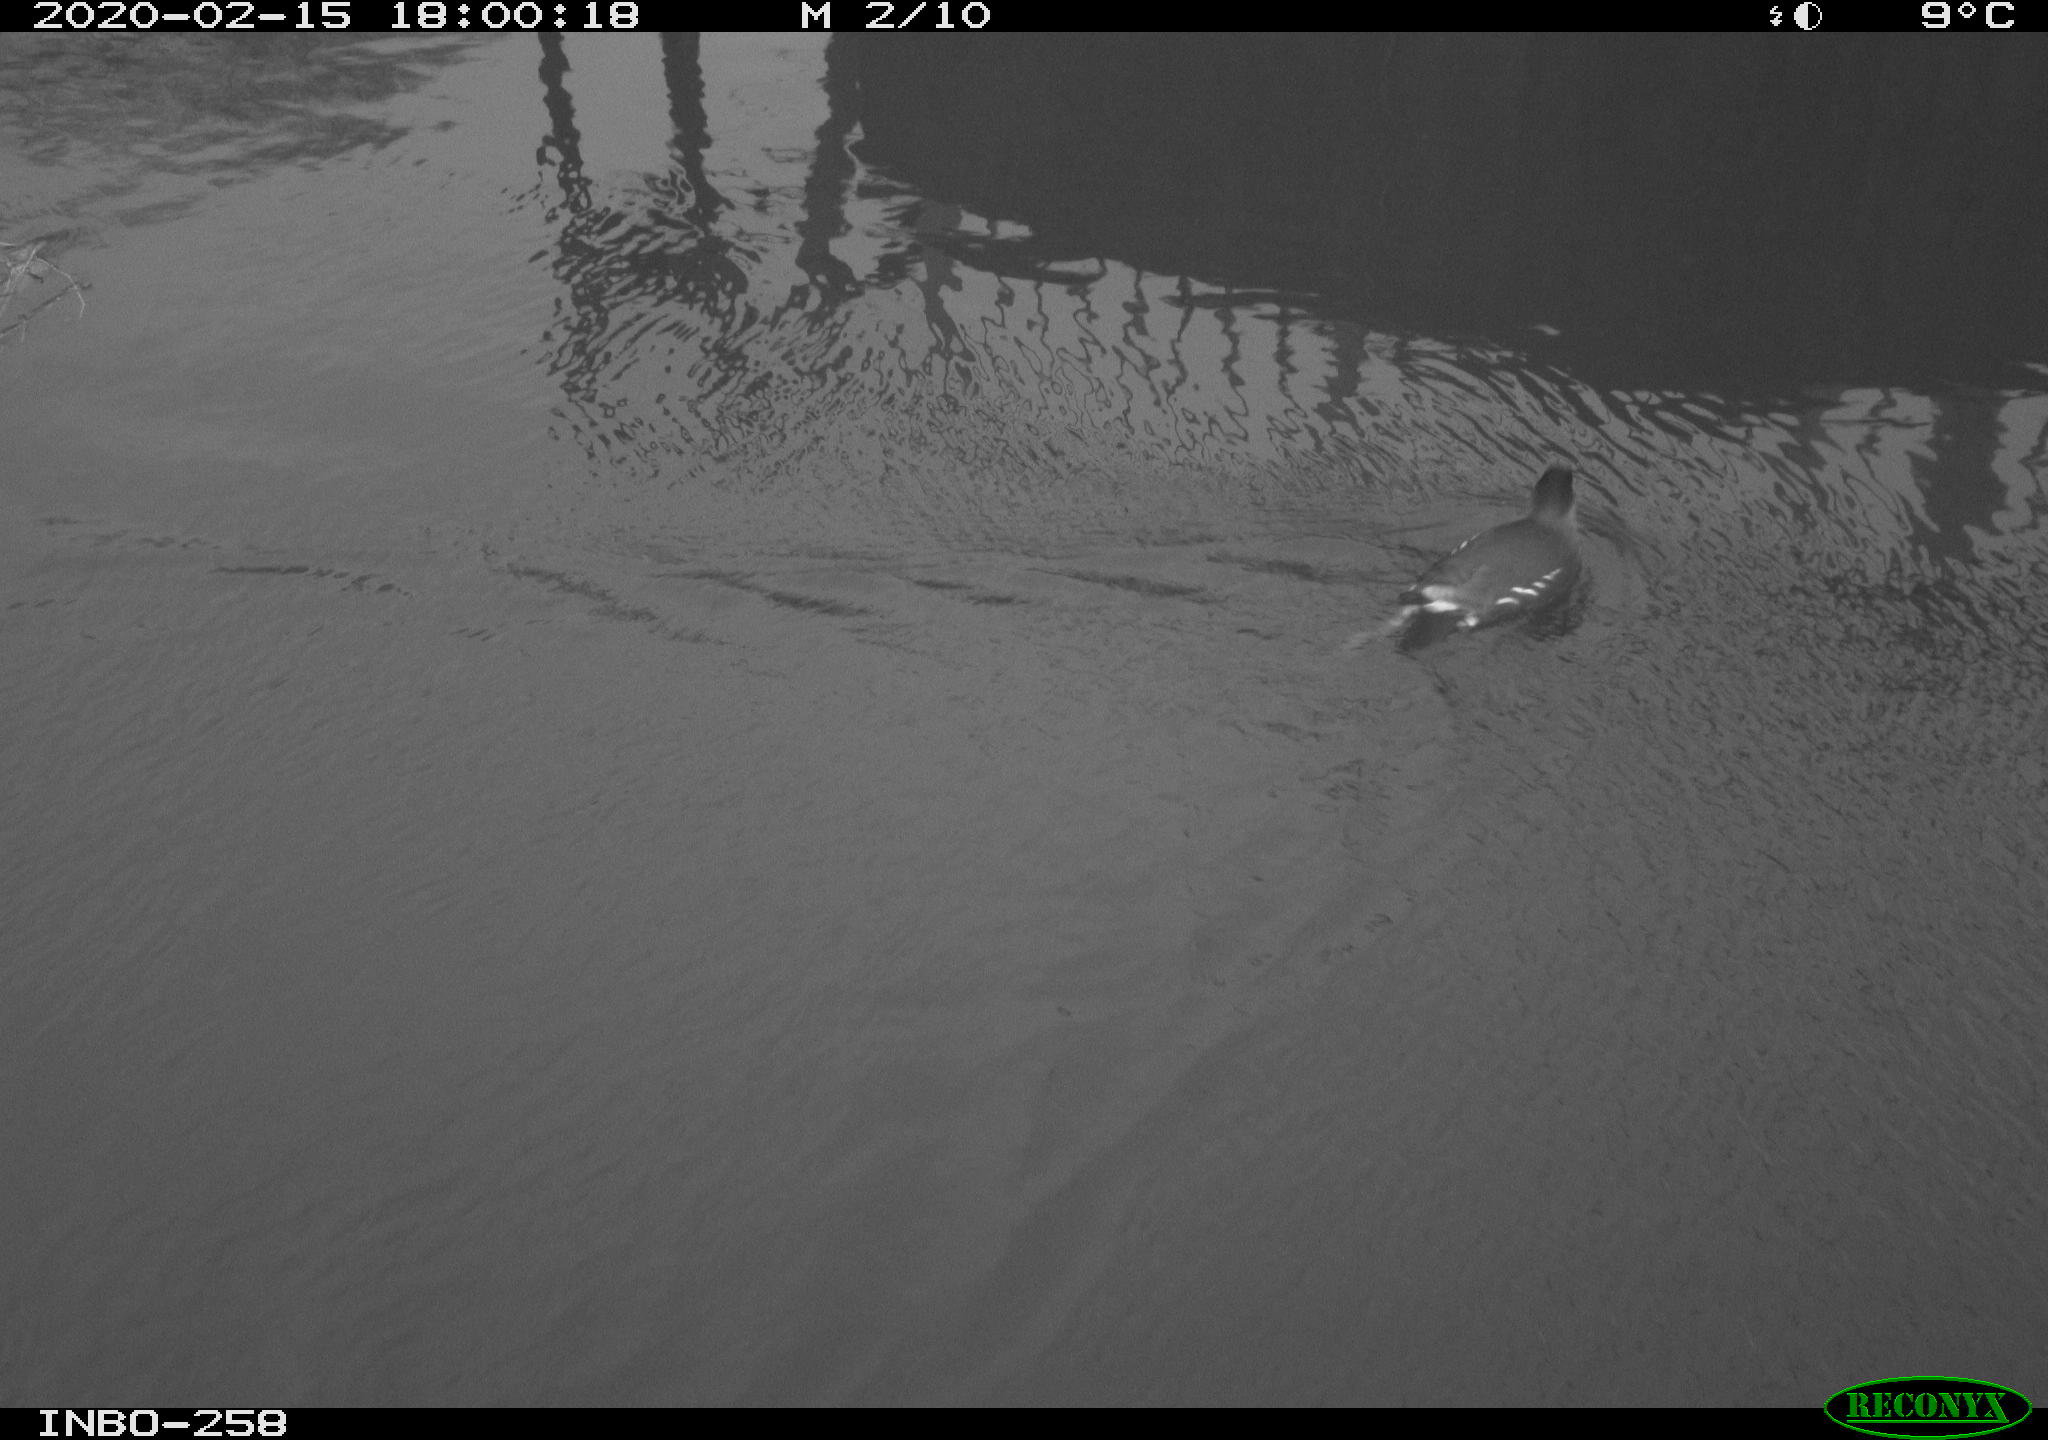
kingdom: Animalia
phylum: Chordata
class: Aves
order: Gruiformes
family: Rallidae
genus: Gallinula
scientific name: Gallinula chloropus
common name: Common moorhen
